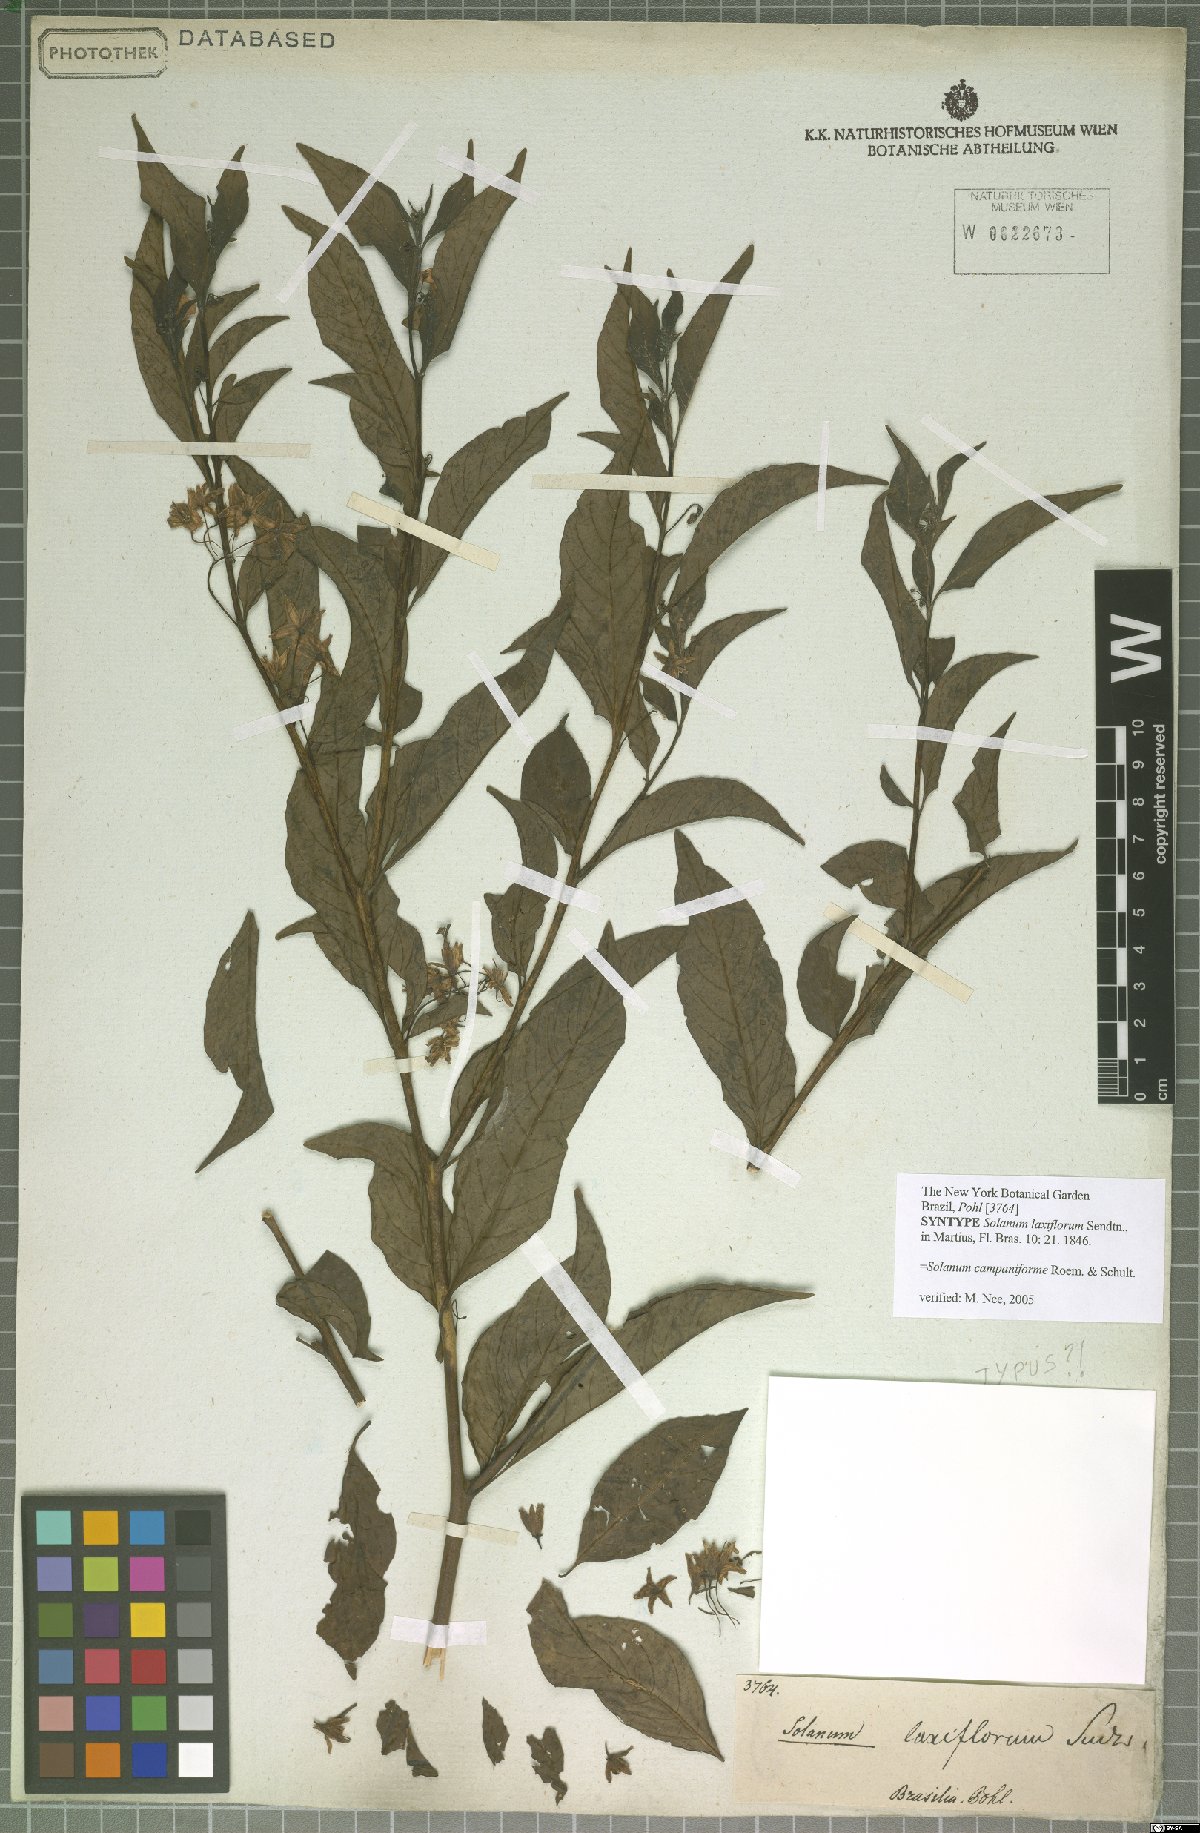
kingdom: Plantae
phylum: Tracheophyta
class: Magnoliopsida
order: Solanales
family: Solanaceae
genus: Solanum
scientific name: Solanum campaniforme
